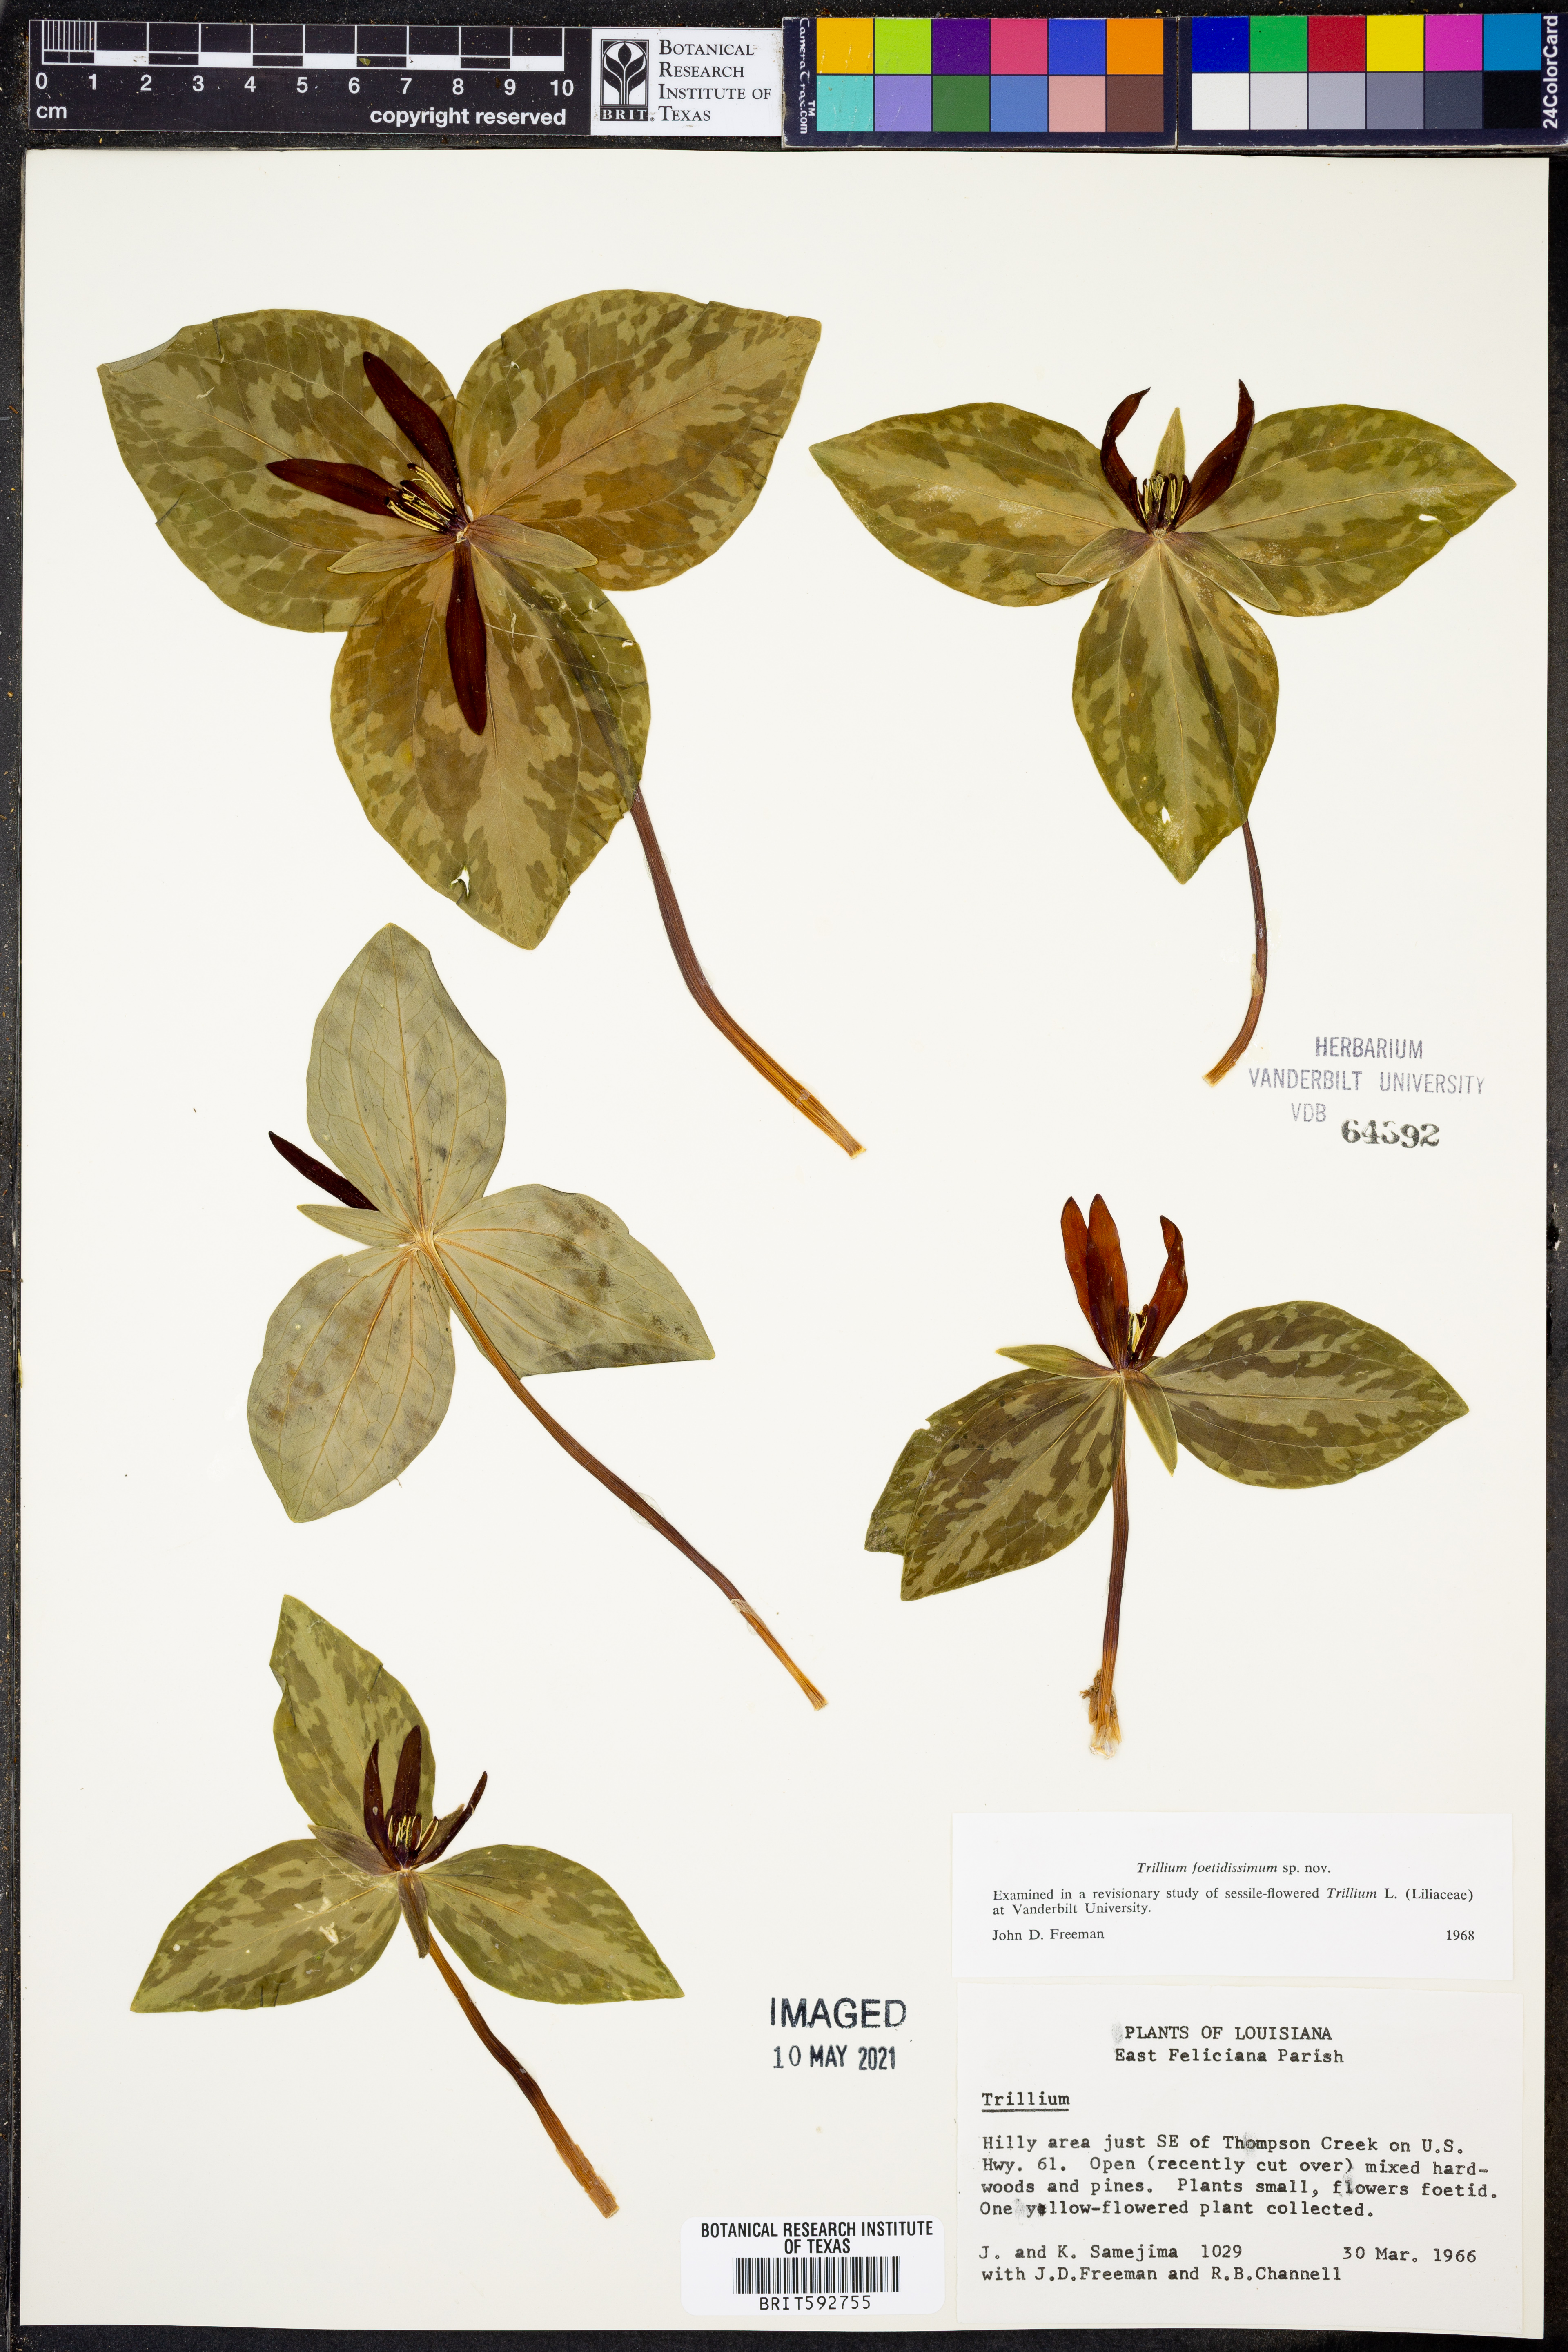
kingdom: Plantae
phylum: Tracheophyta
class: Liliopsida
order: Liliales
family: Melanthiaceae
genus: Trillium
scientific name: Trillium foetidissimum
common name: Mississippi river trillium
